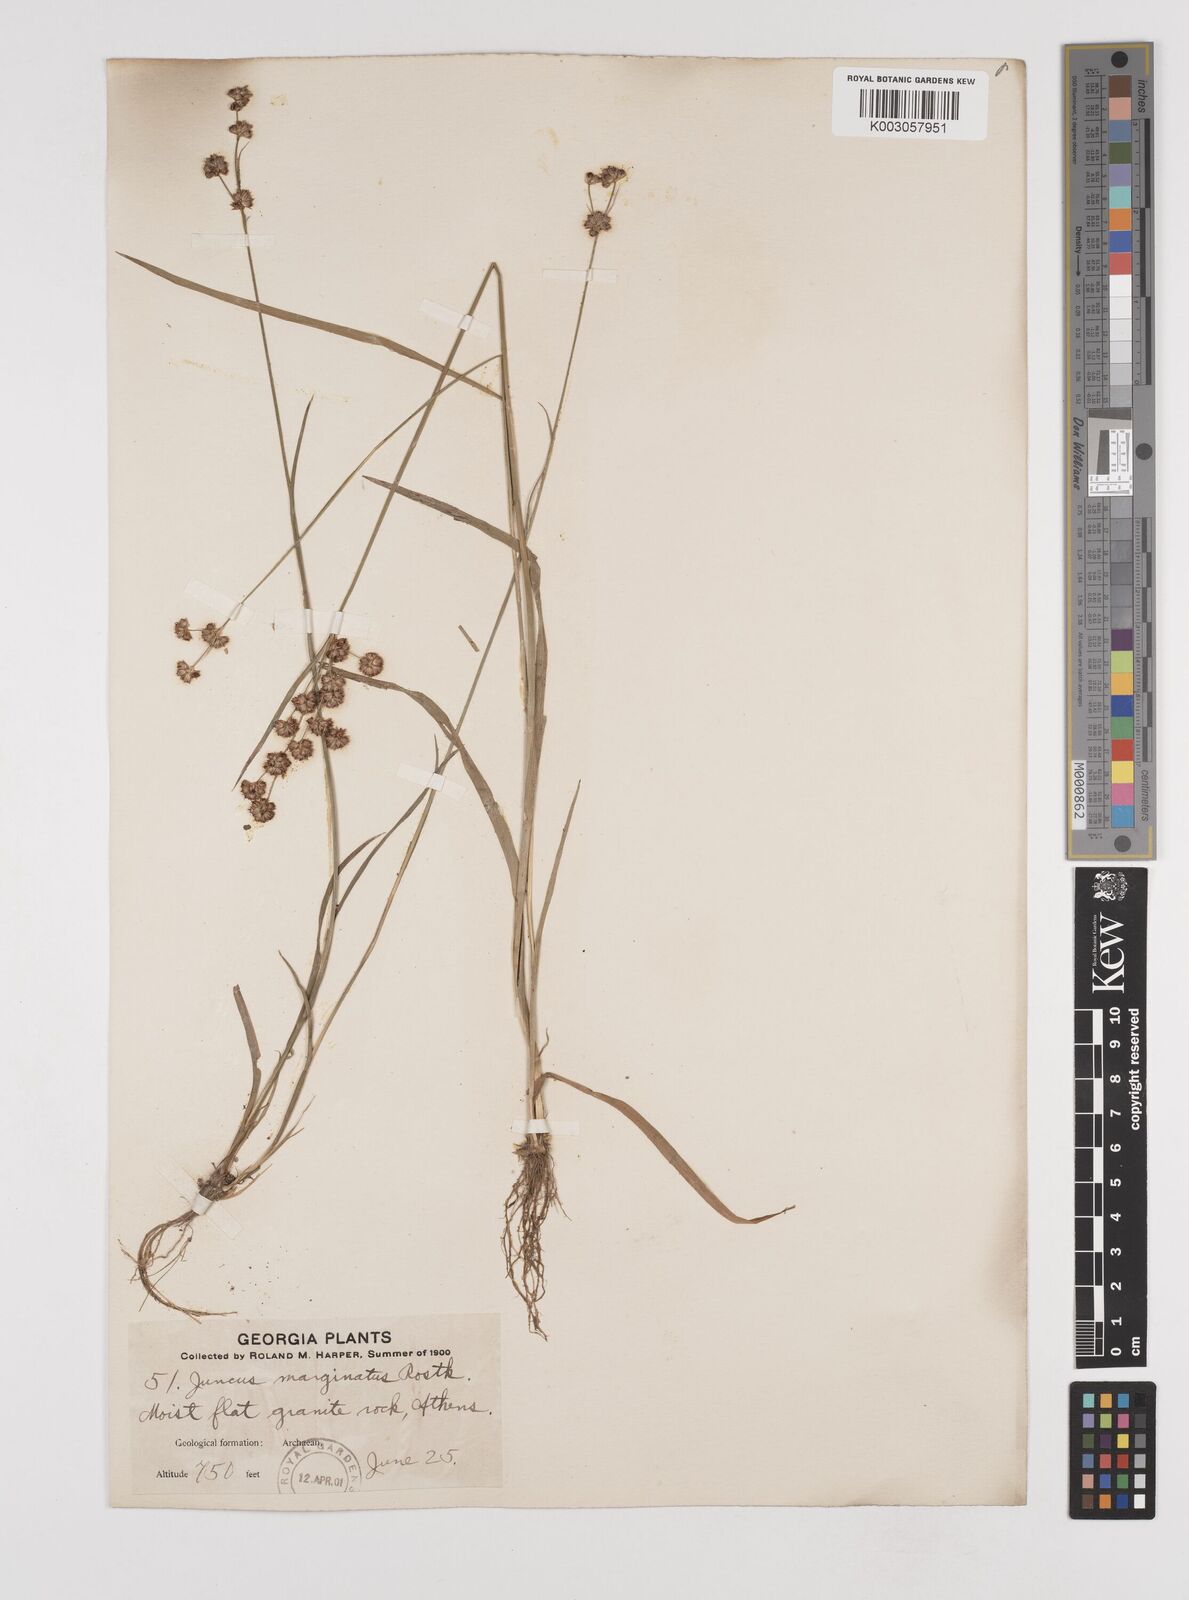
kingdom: Plantae
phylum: Tracheophyta
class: Liliopsida
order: Poales
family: Juncaceae
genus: Juncus
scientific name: Juncus marginatus
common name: Grass-leaf rush
